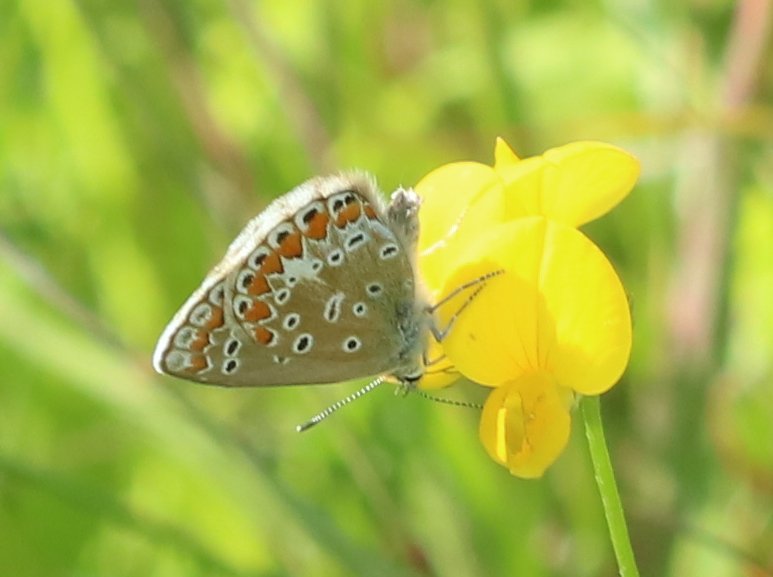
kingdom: Animalia
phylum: Arthropoda
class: Insecta
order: Lepidoptera
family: Lycaenidae
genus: Polyommatus
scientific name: Polyommatus icarus
